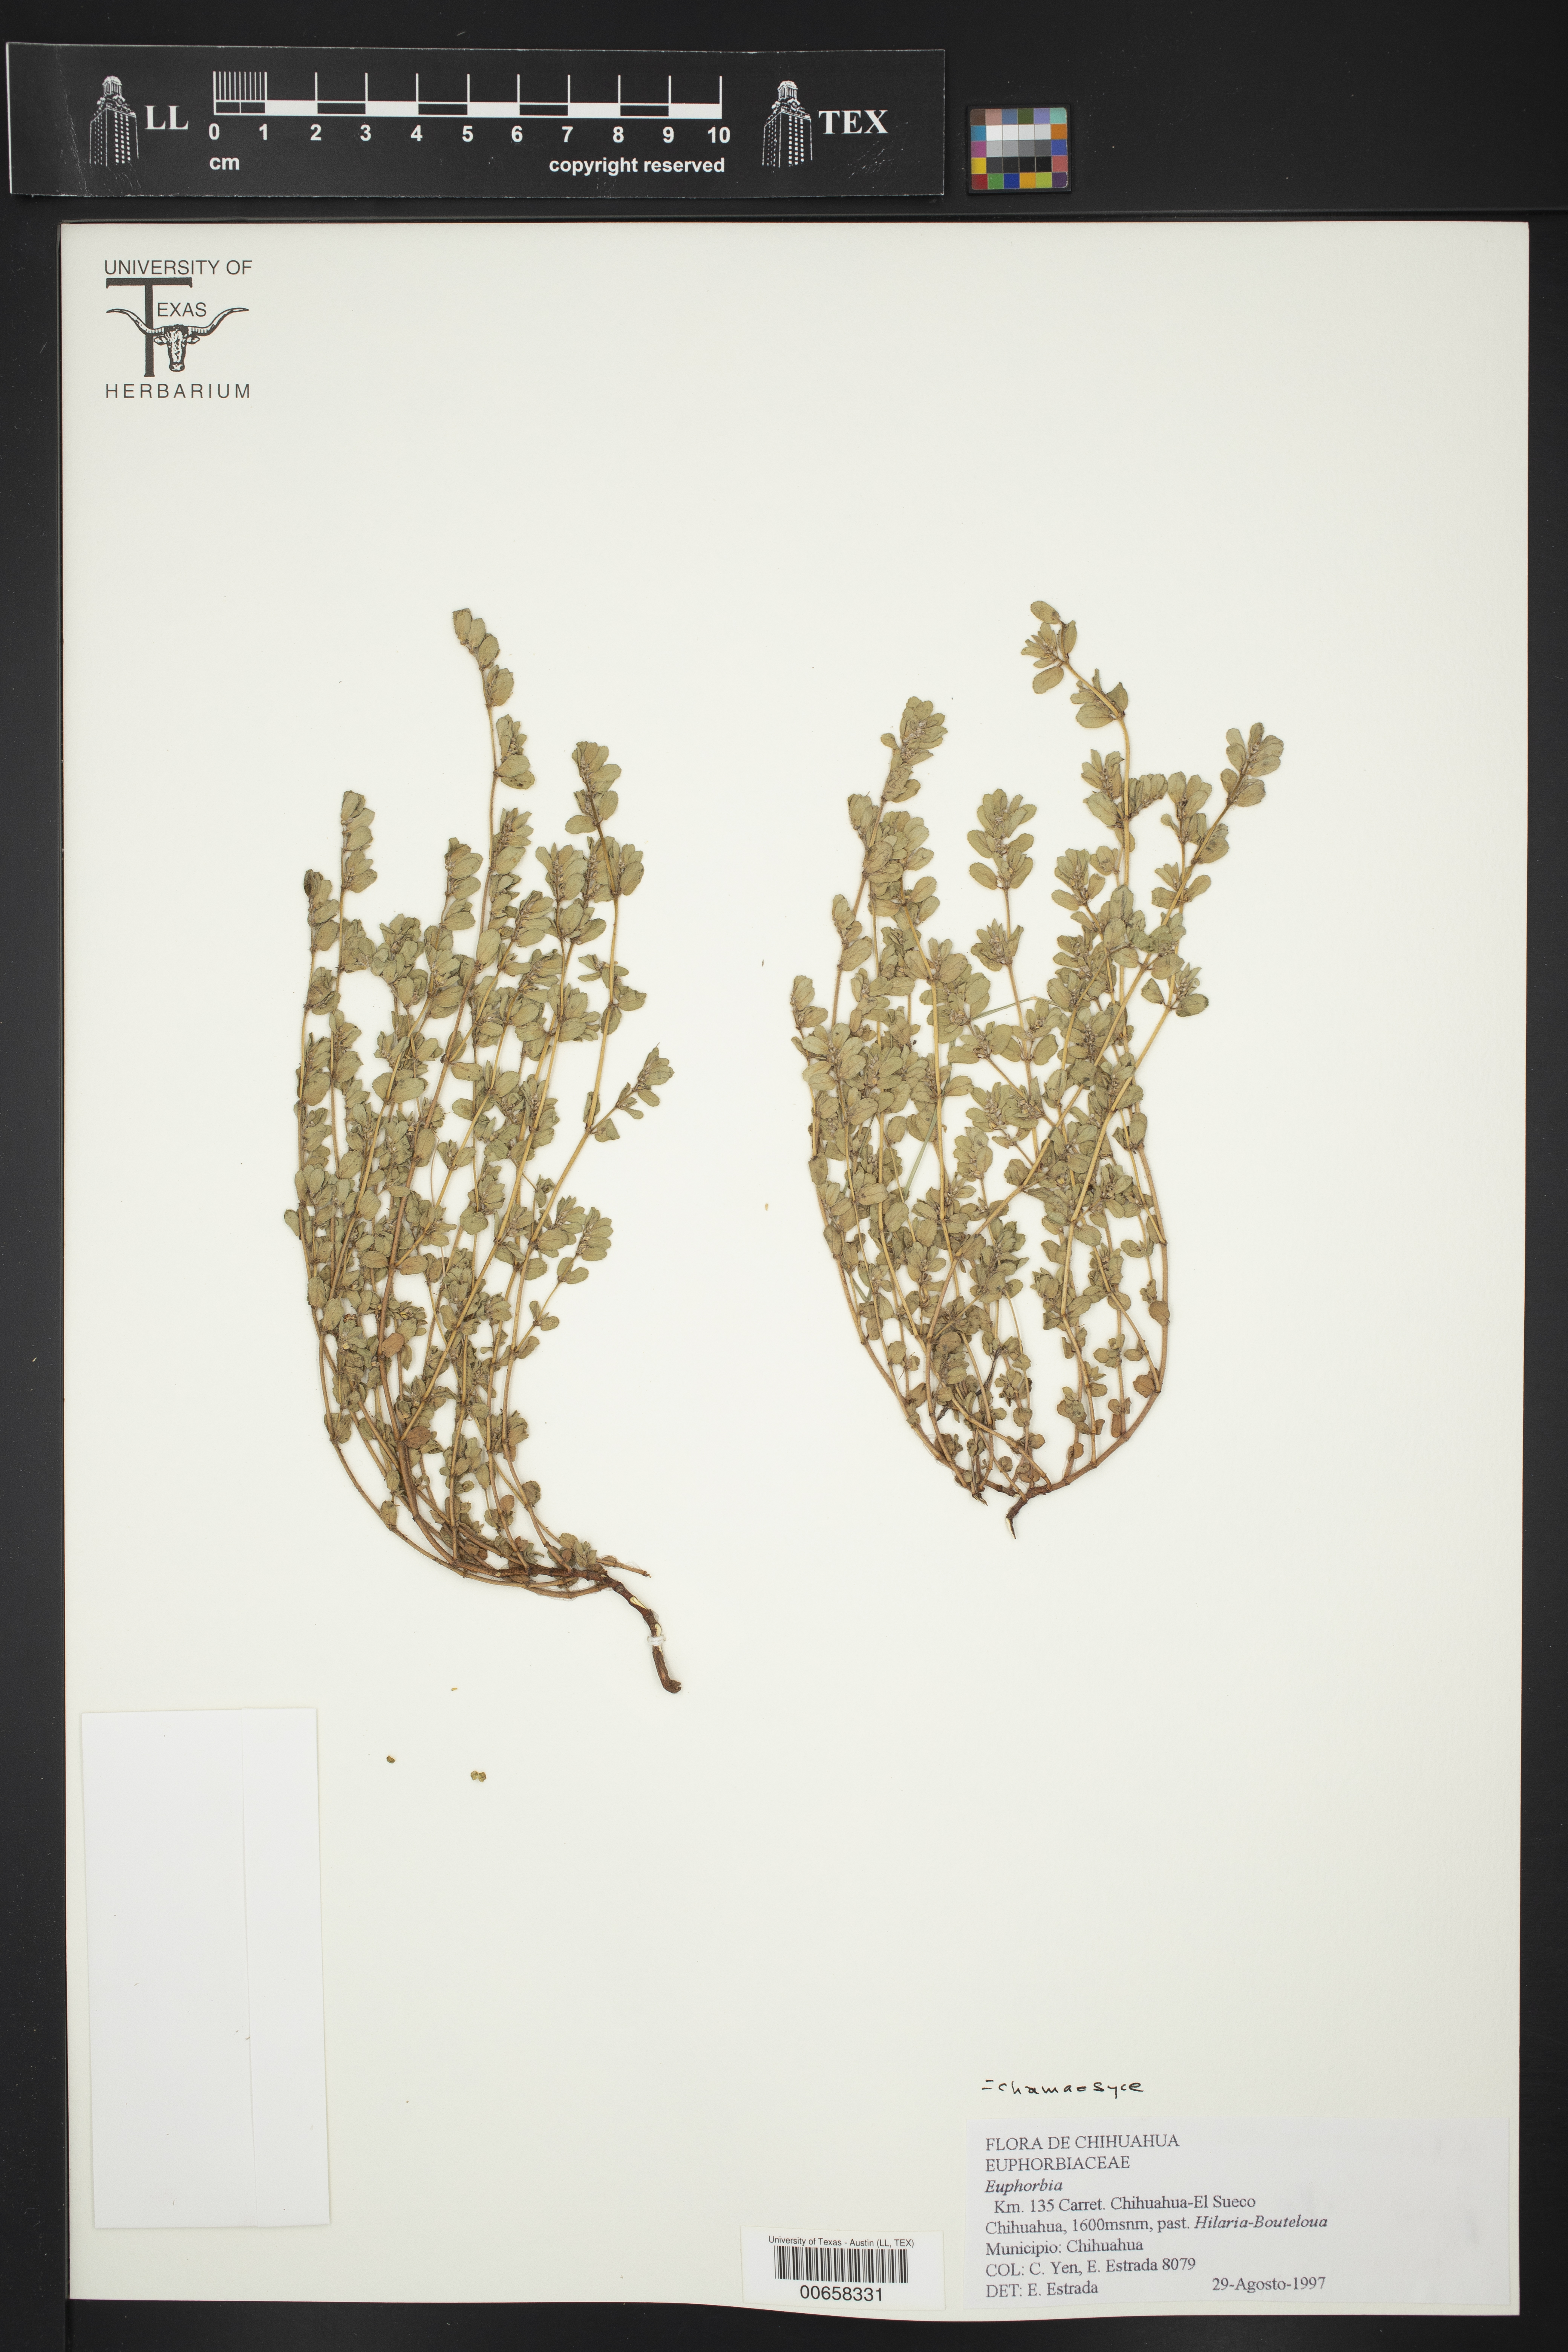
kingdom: Plantae
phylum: Tracheophyta
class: Magnoliopsida
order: Malpighiales
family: Euphorbiaceae
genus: Euphorbia
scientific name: Euphorbia
